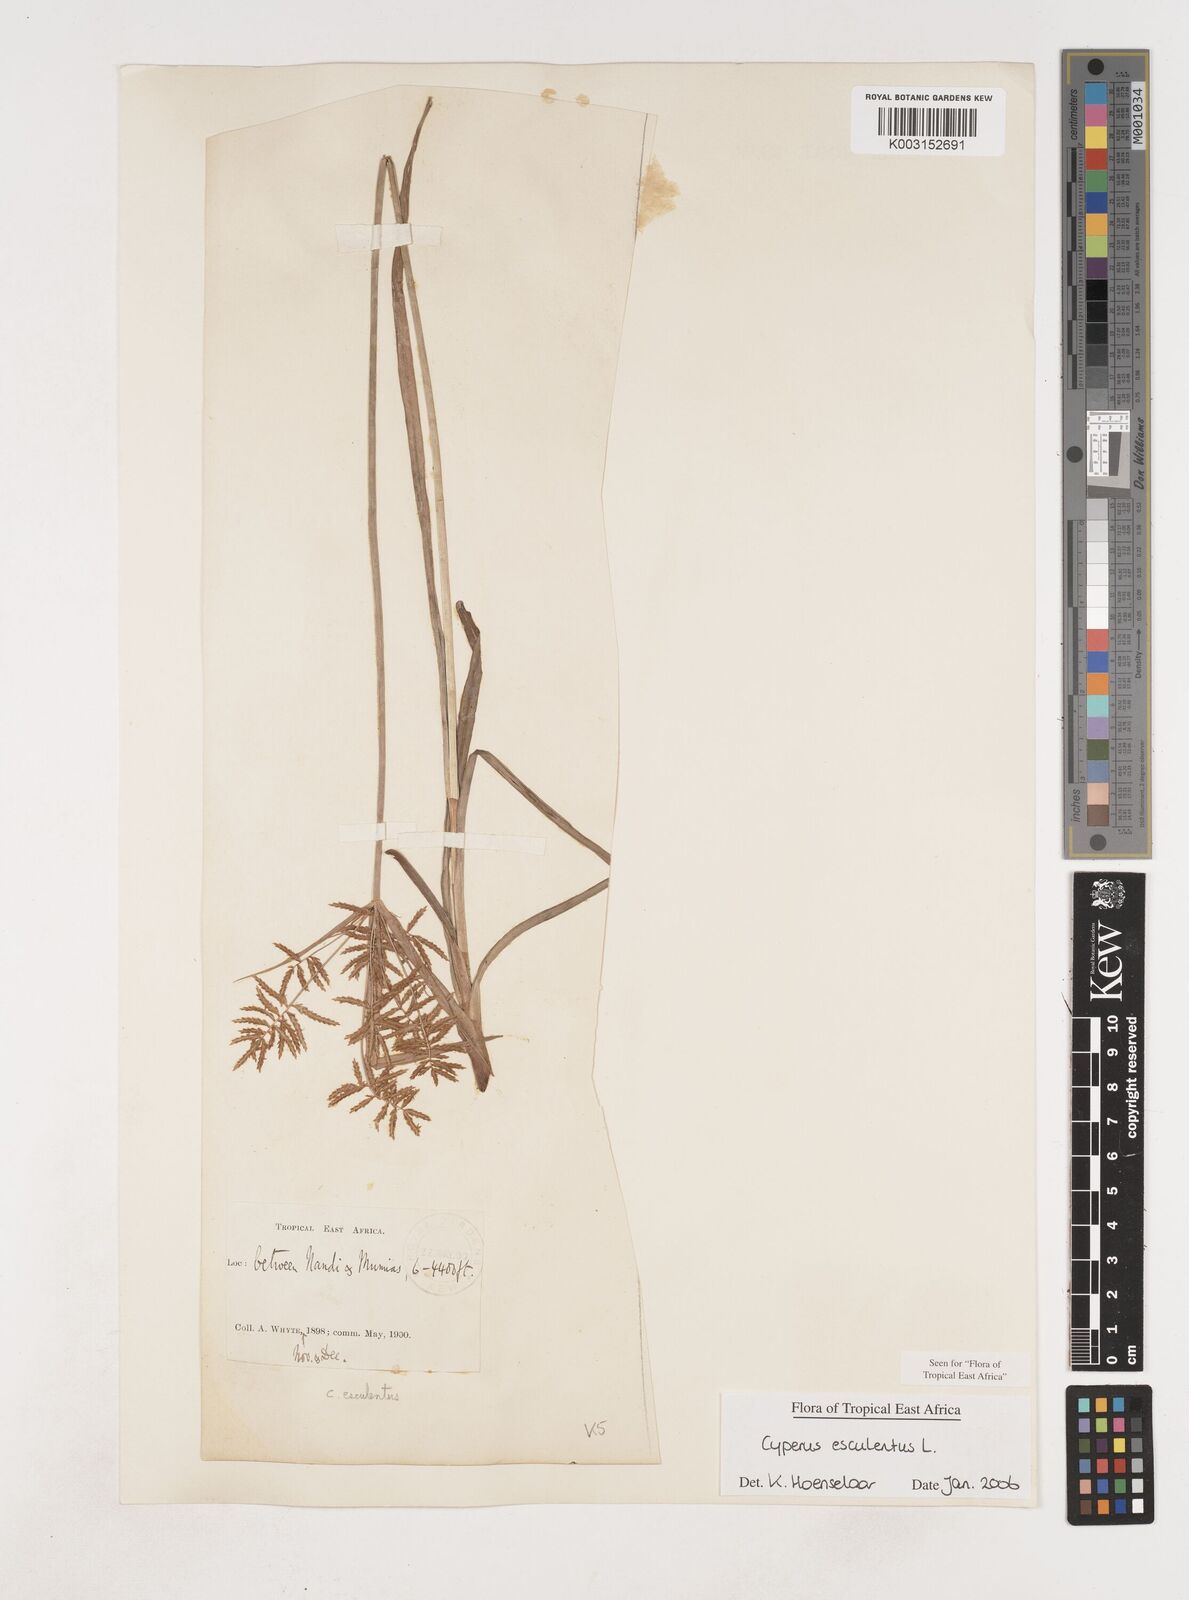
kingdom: Plantae
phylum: Tracheophyta
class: Liliopsida
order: Poales
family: Cyperaceae
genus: Cyperus
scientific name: Cyperus esculentus
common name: Yellow nutsedge
